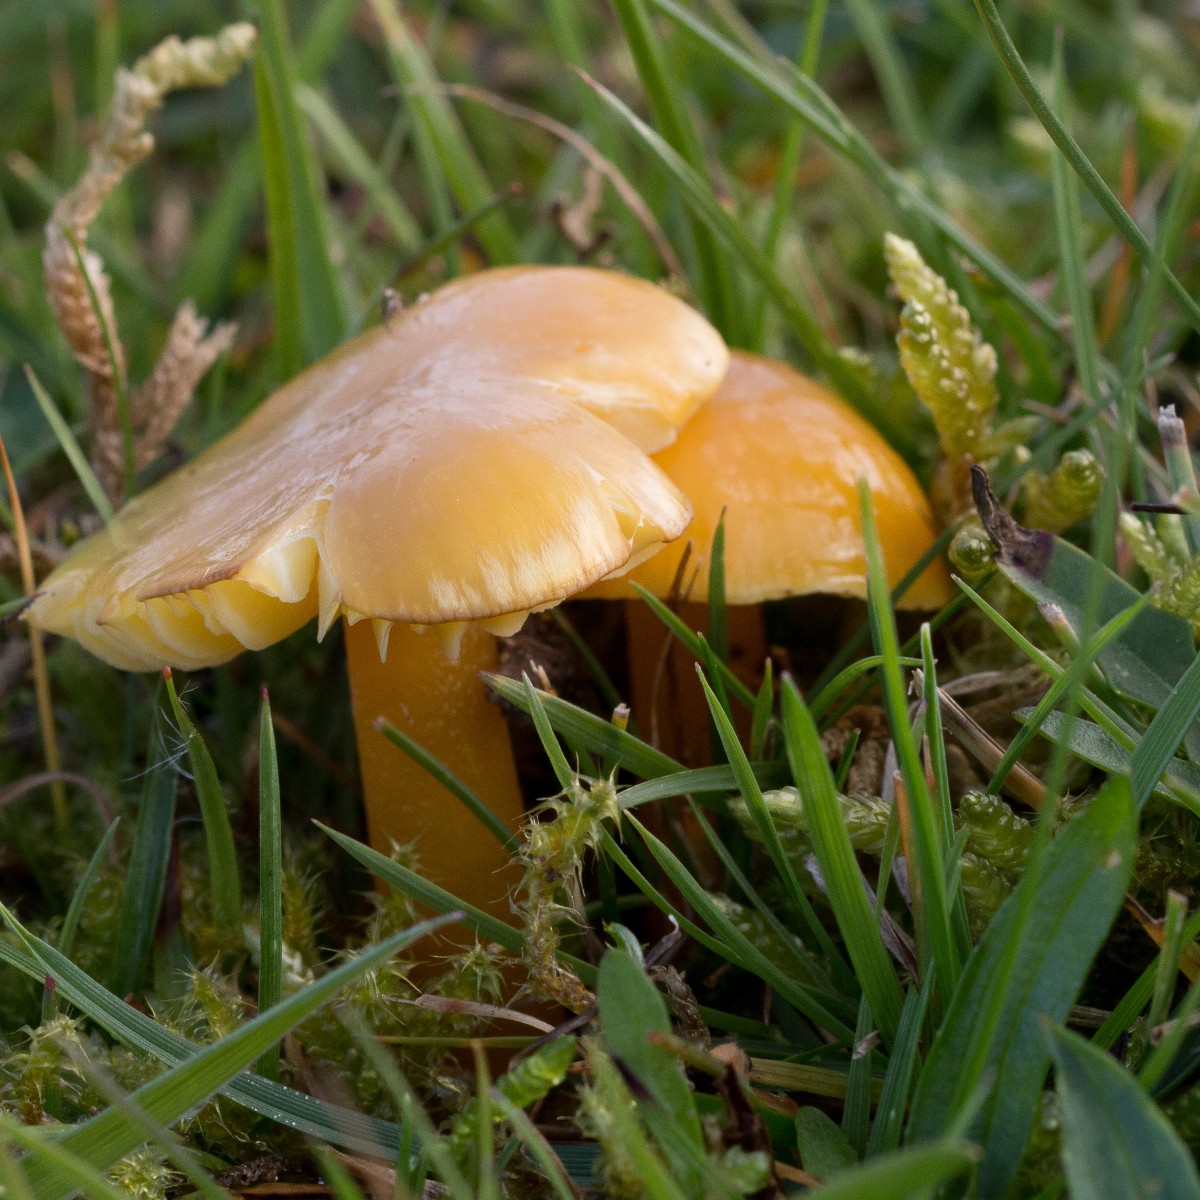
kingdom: Fungi
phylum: Basidiomycota
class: Agaricomycetes
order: Agaricales
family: Hygrophoraceae
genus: Hygrocybe
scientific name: Hygrocybe chlorophana
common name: gul vokshat
